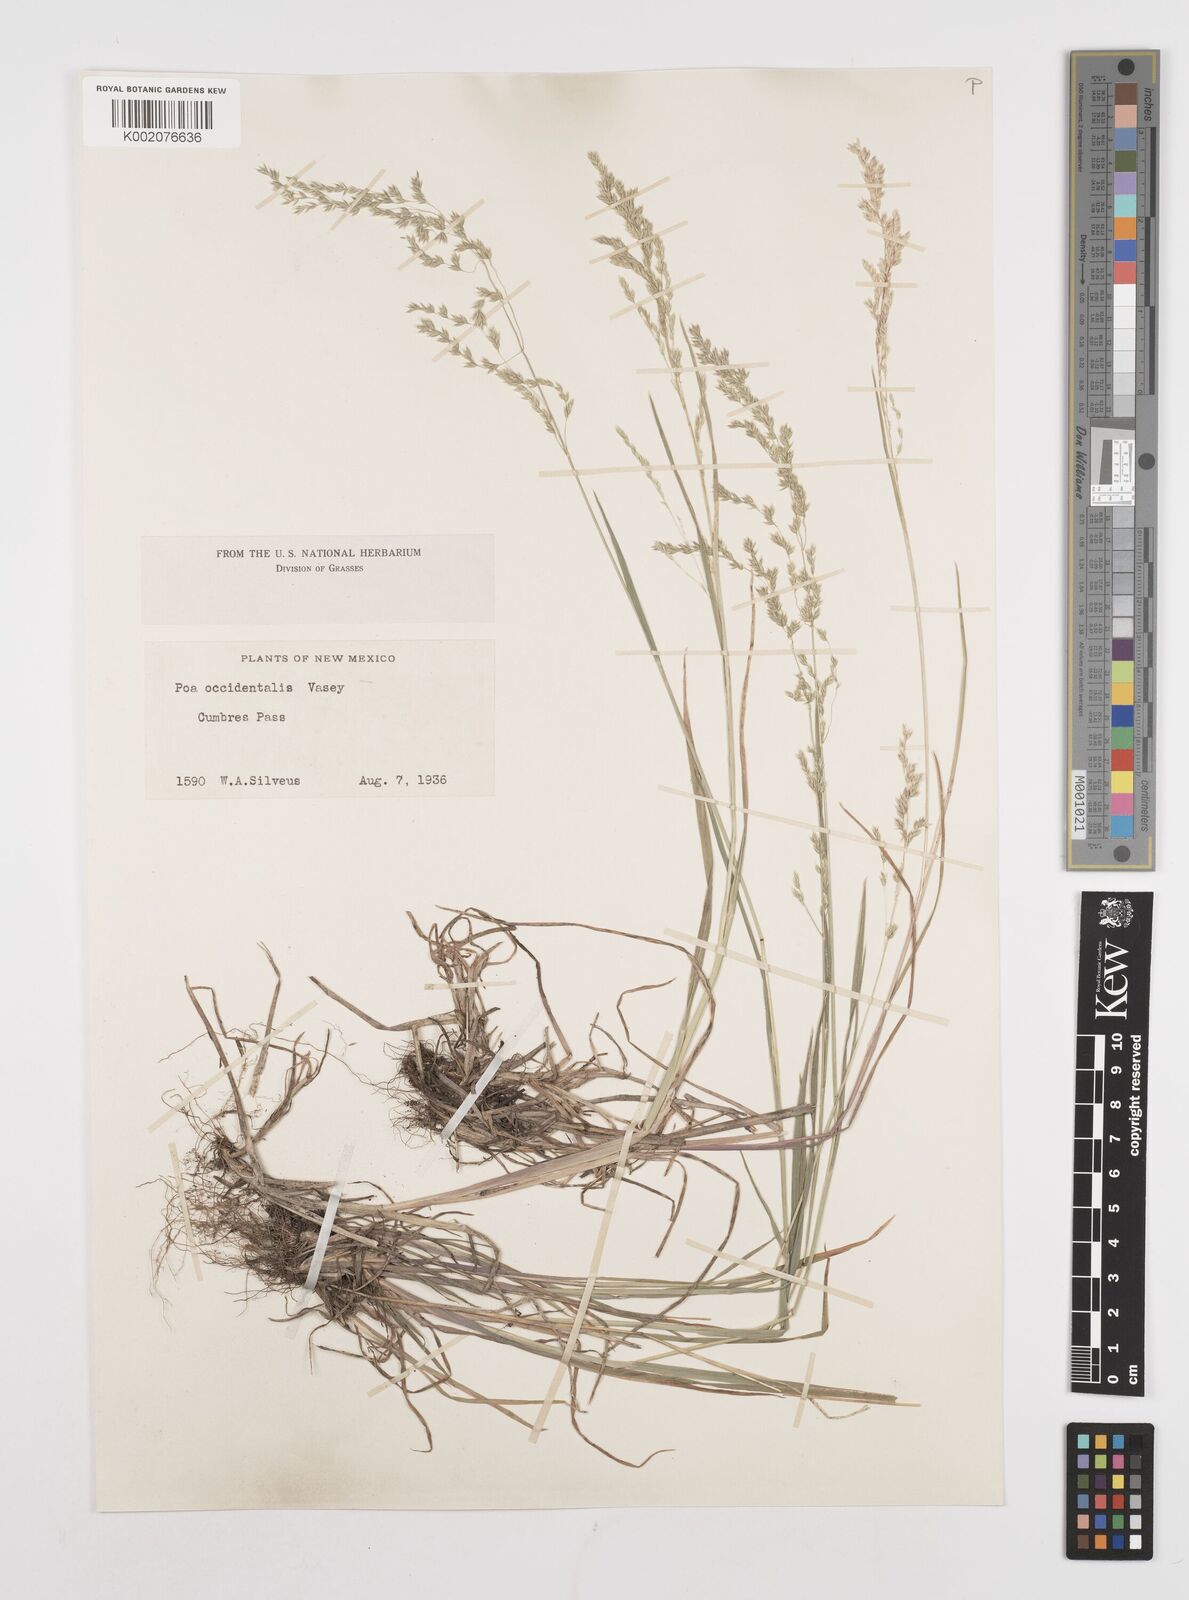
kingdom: Plantae
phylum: Tracheophyta
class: Liliopsida
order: Poales
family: Poaceae
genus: Poa
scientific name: Poa occidentalis
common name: New mexican bluegrass
